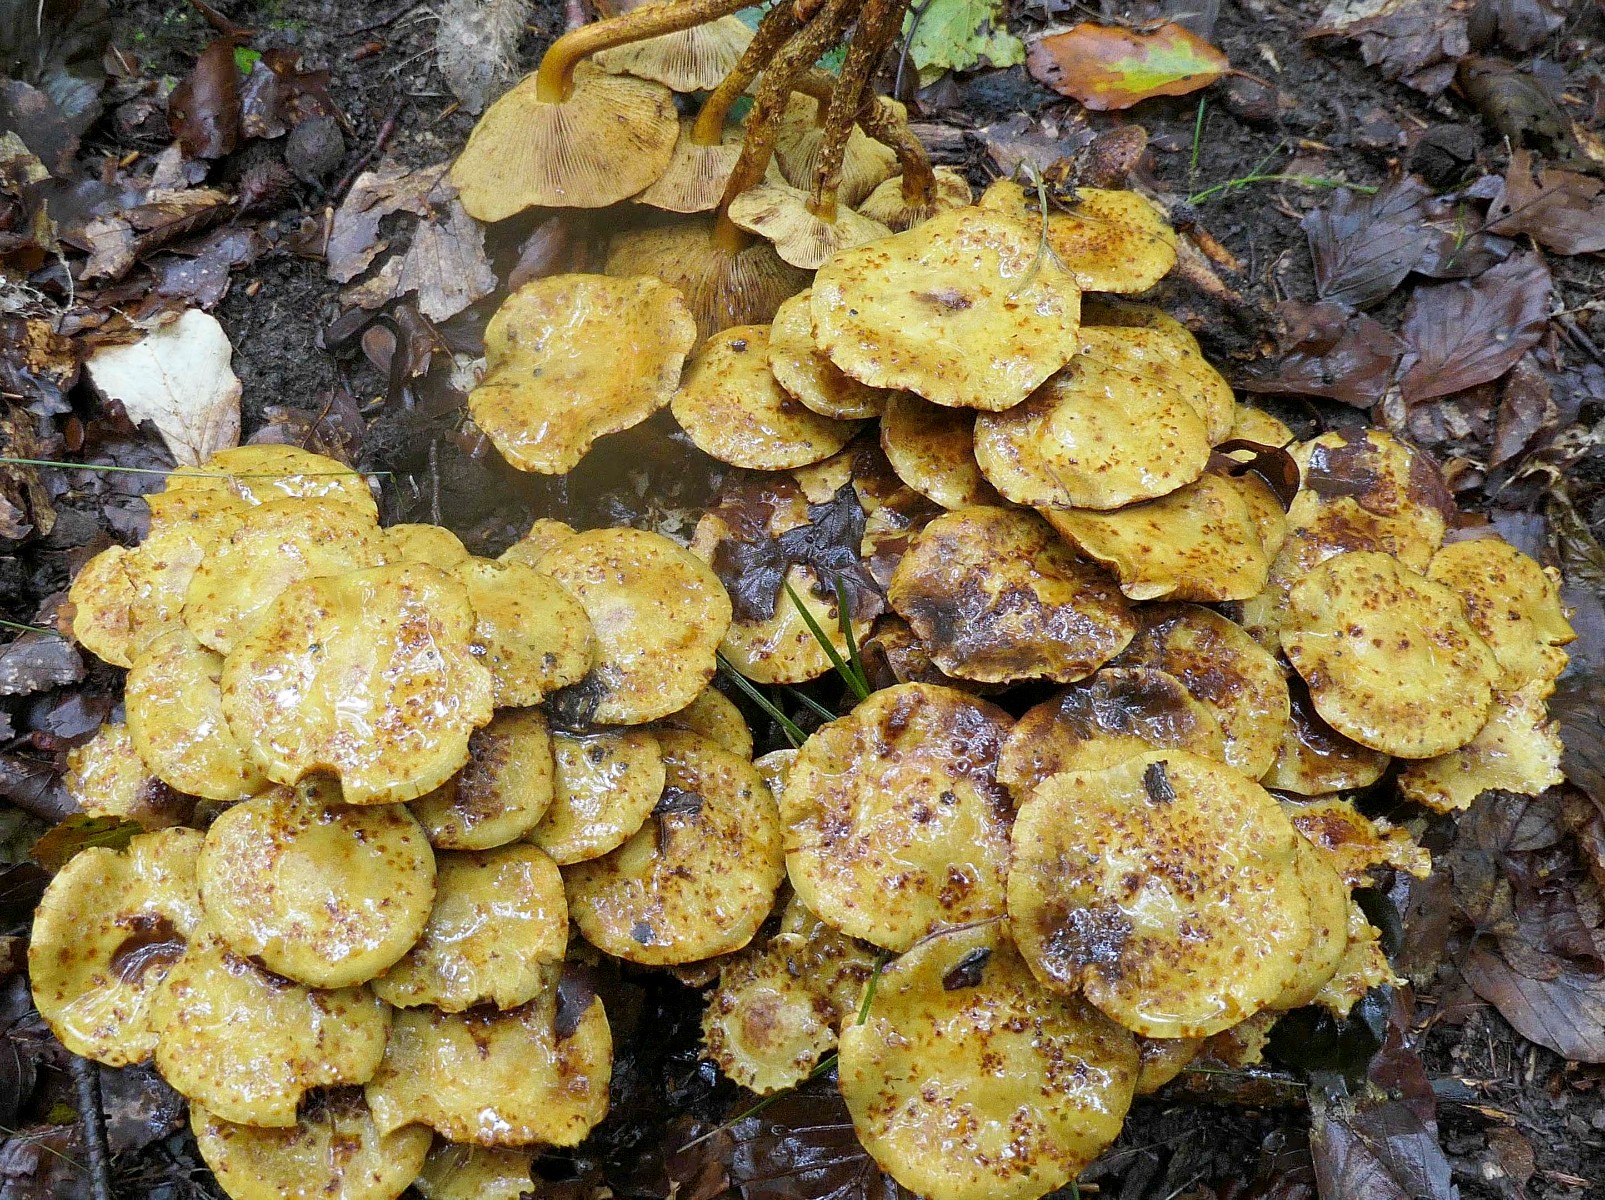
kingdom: Fungi
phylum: Basidiomycota
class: Agaricomycetes
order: Agaricales
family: Strophariaceae
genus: Pholiota
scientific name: Pholiota jahnii
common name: slimet skælhat
